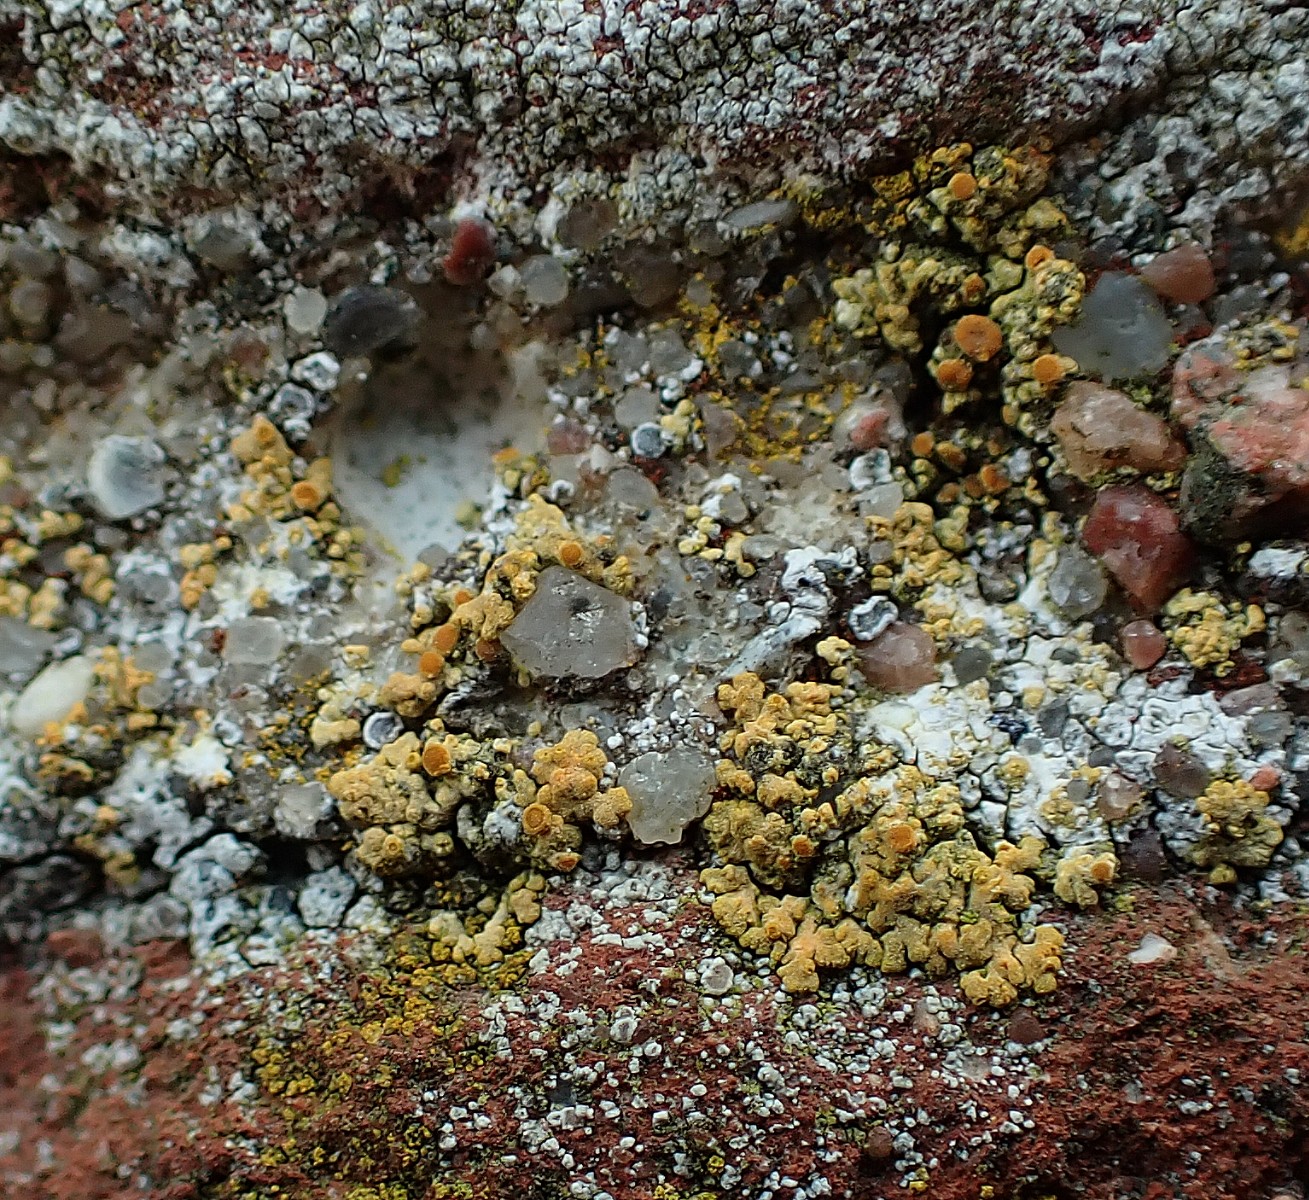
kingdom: Fungi
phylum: Ascomycota
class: Lecanoromycetes
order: Teloschistales
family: Teloschistaceae
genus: Calogaya
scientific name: Calogaya decipiens
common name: knudret orangelav
